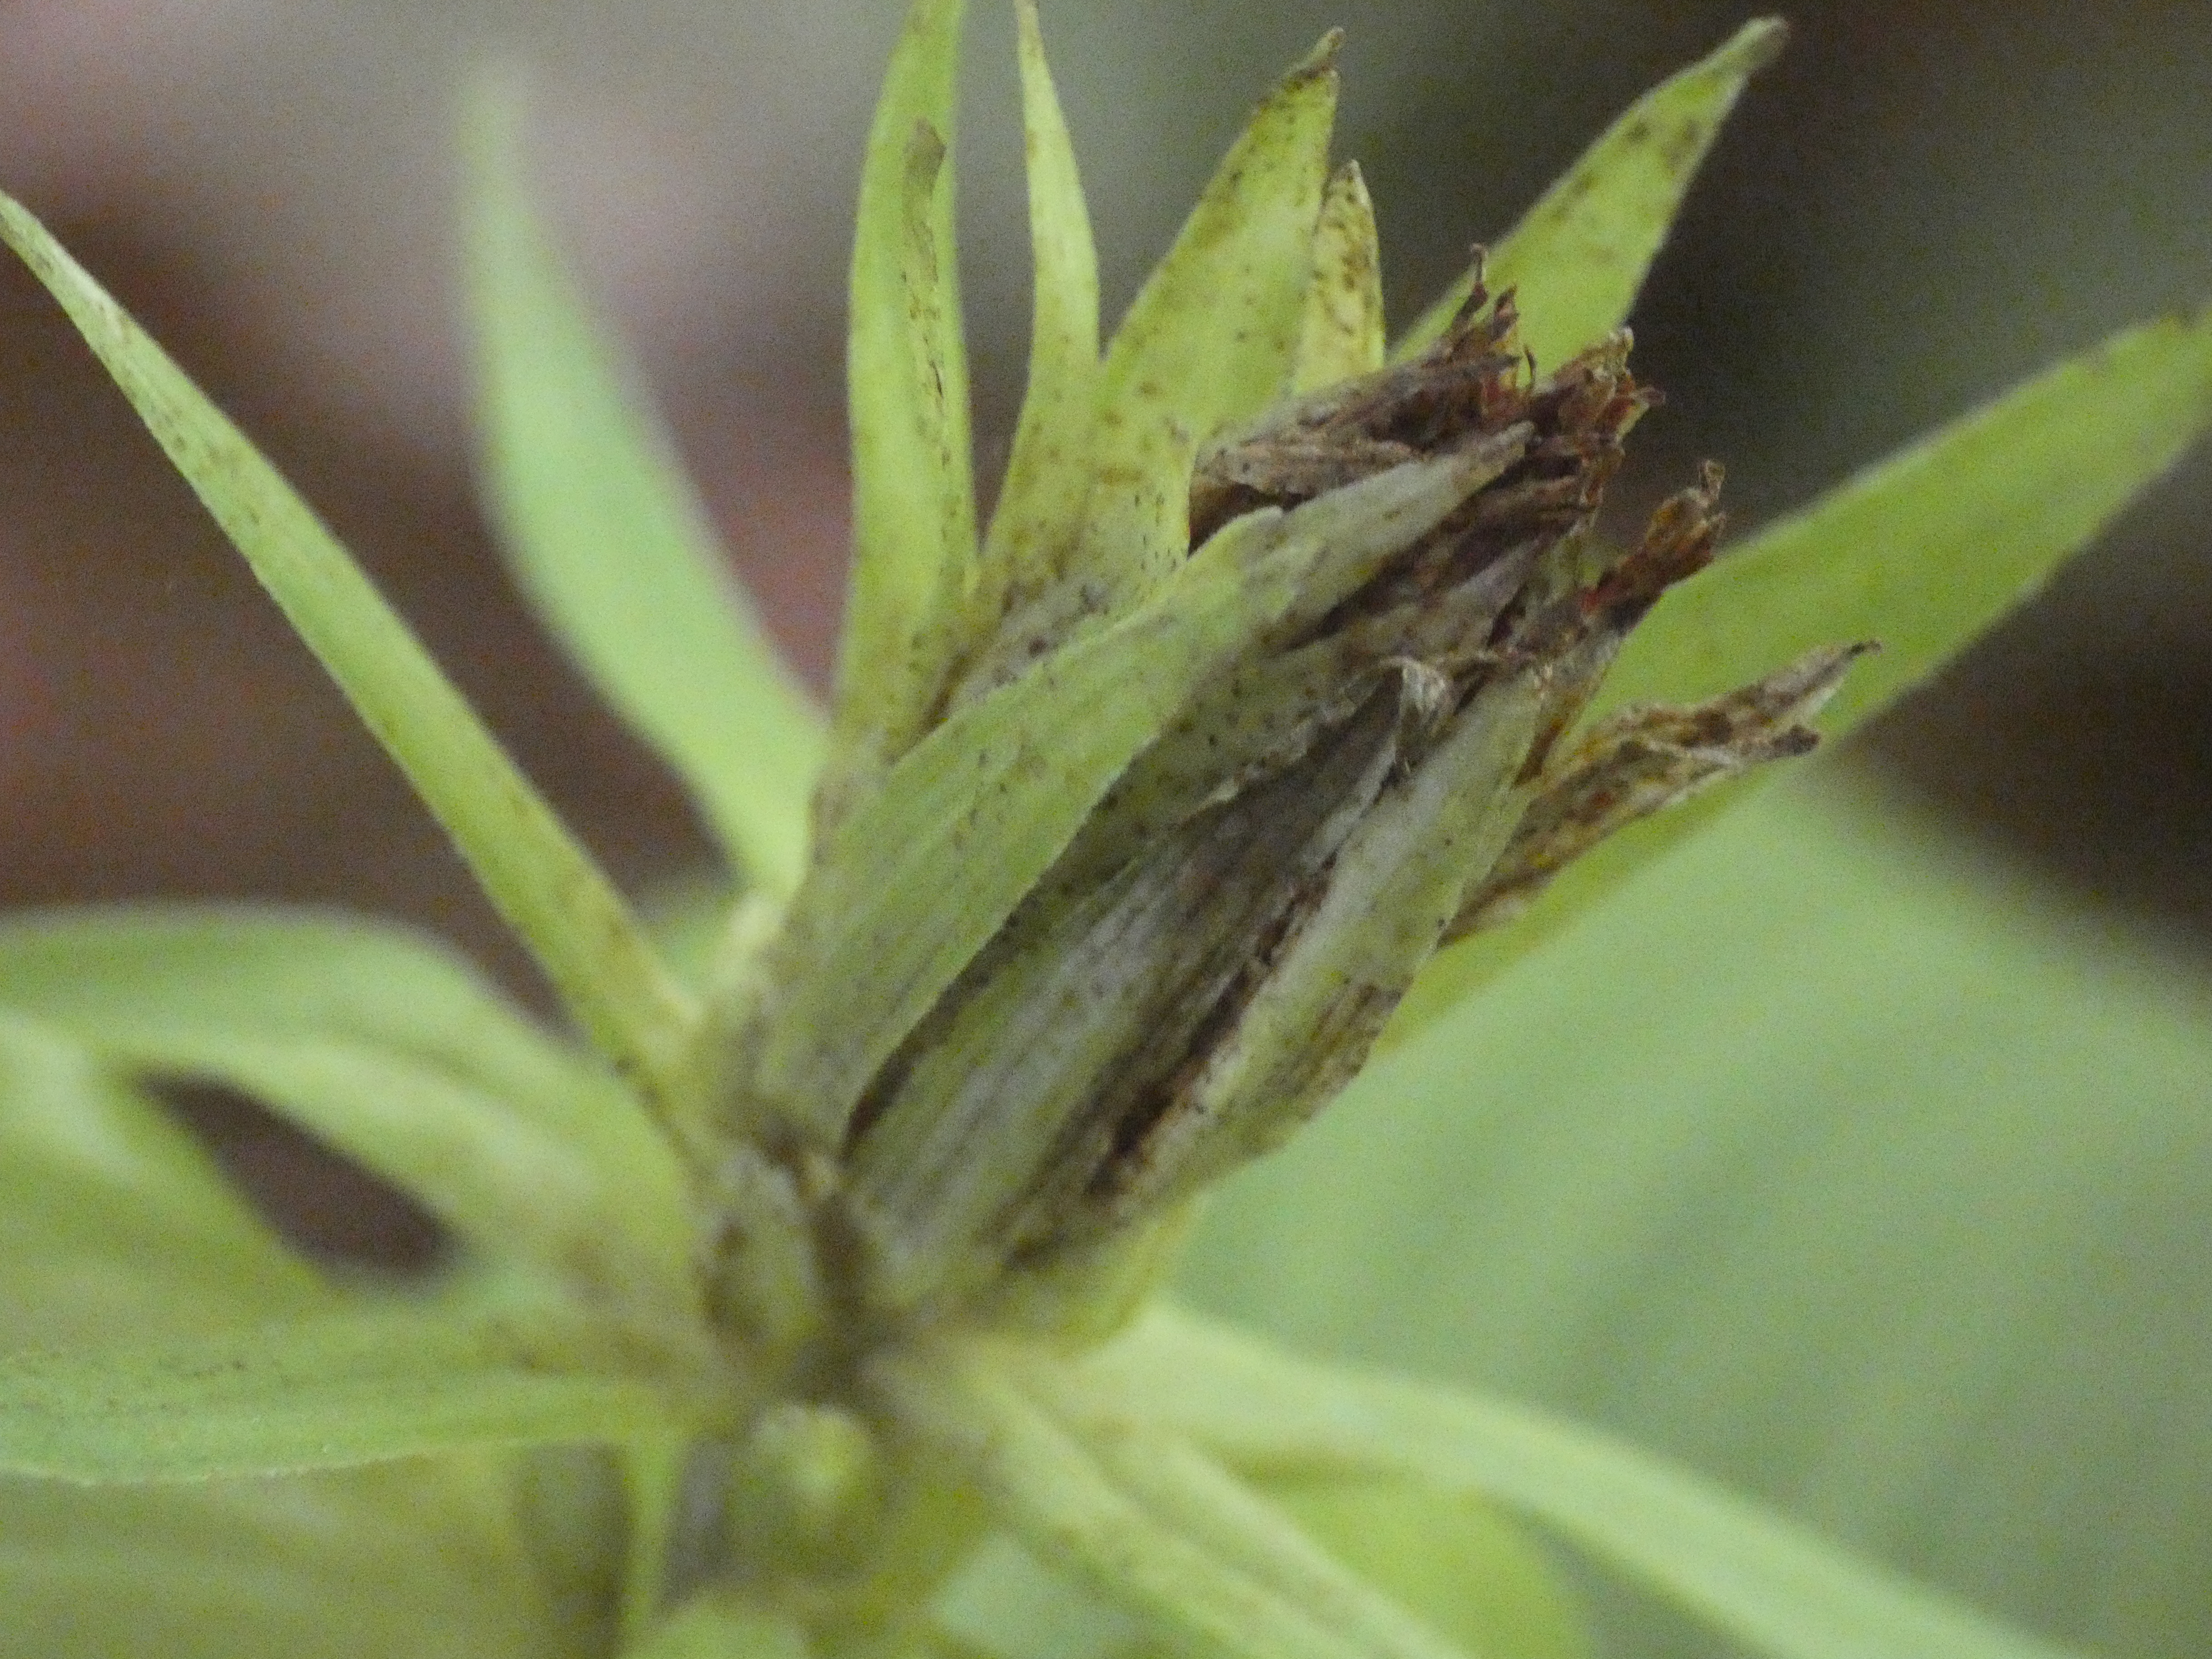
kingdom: Plantae
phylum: Tracheophyta
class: Liliopsida
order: Asparagales
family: Orchidaceae
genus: Epipactis
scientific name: Epipactis
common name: Hullæbeslægten
